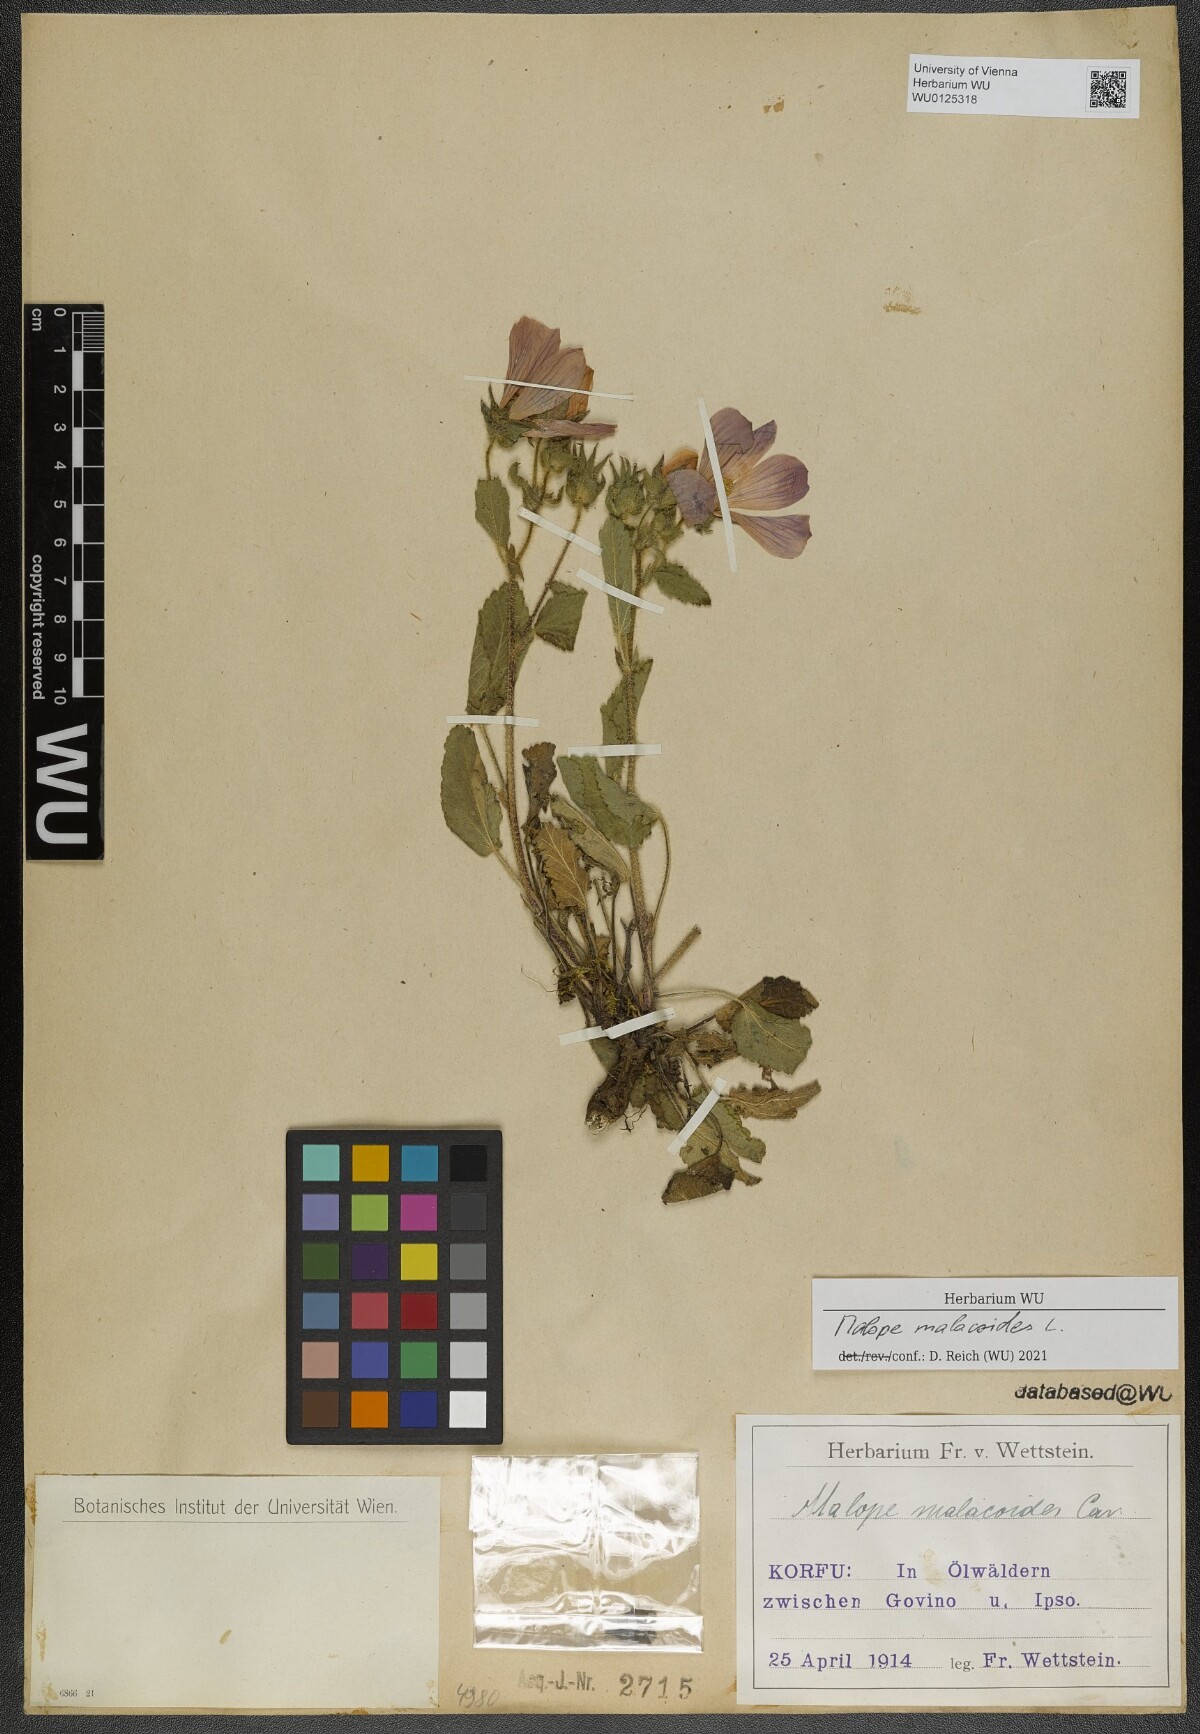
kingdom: Plantae
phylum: Tracheophyta
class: Magnoliopsida
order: Malvales
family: Malvaceae
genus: Malope
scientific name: Malope malacoides
